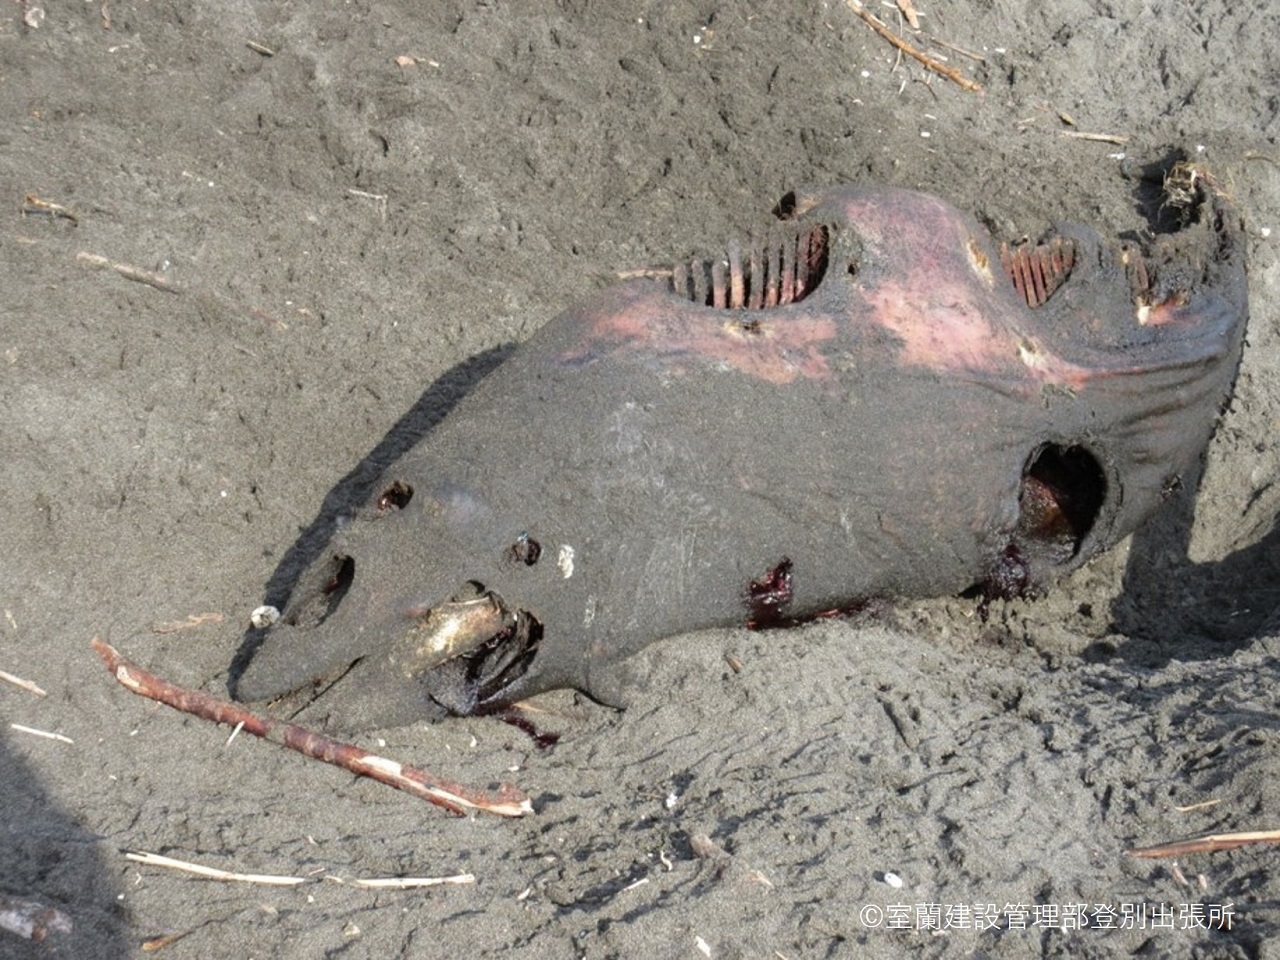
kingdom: Animalia
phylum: Chordata
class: Mammalia
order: Cetacea
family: Delphinidae
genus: Lagenorhynchus
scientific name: Lagenorhynchus obliquidens
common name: Pacific white-sided dolphin
